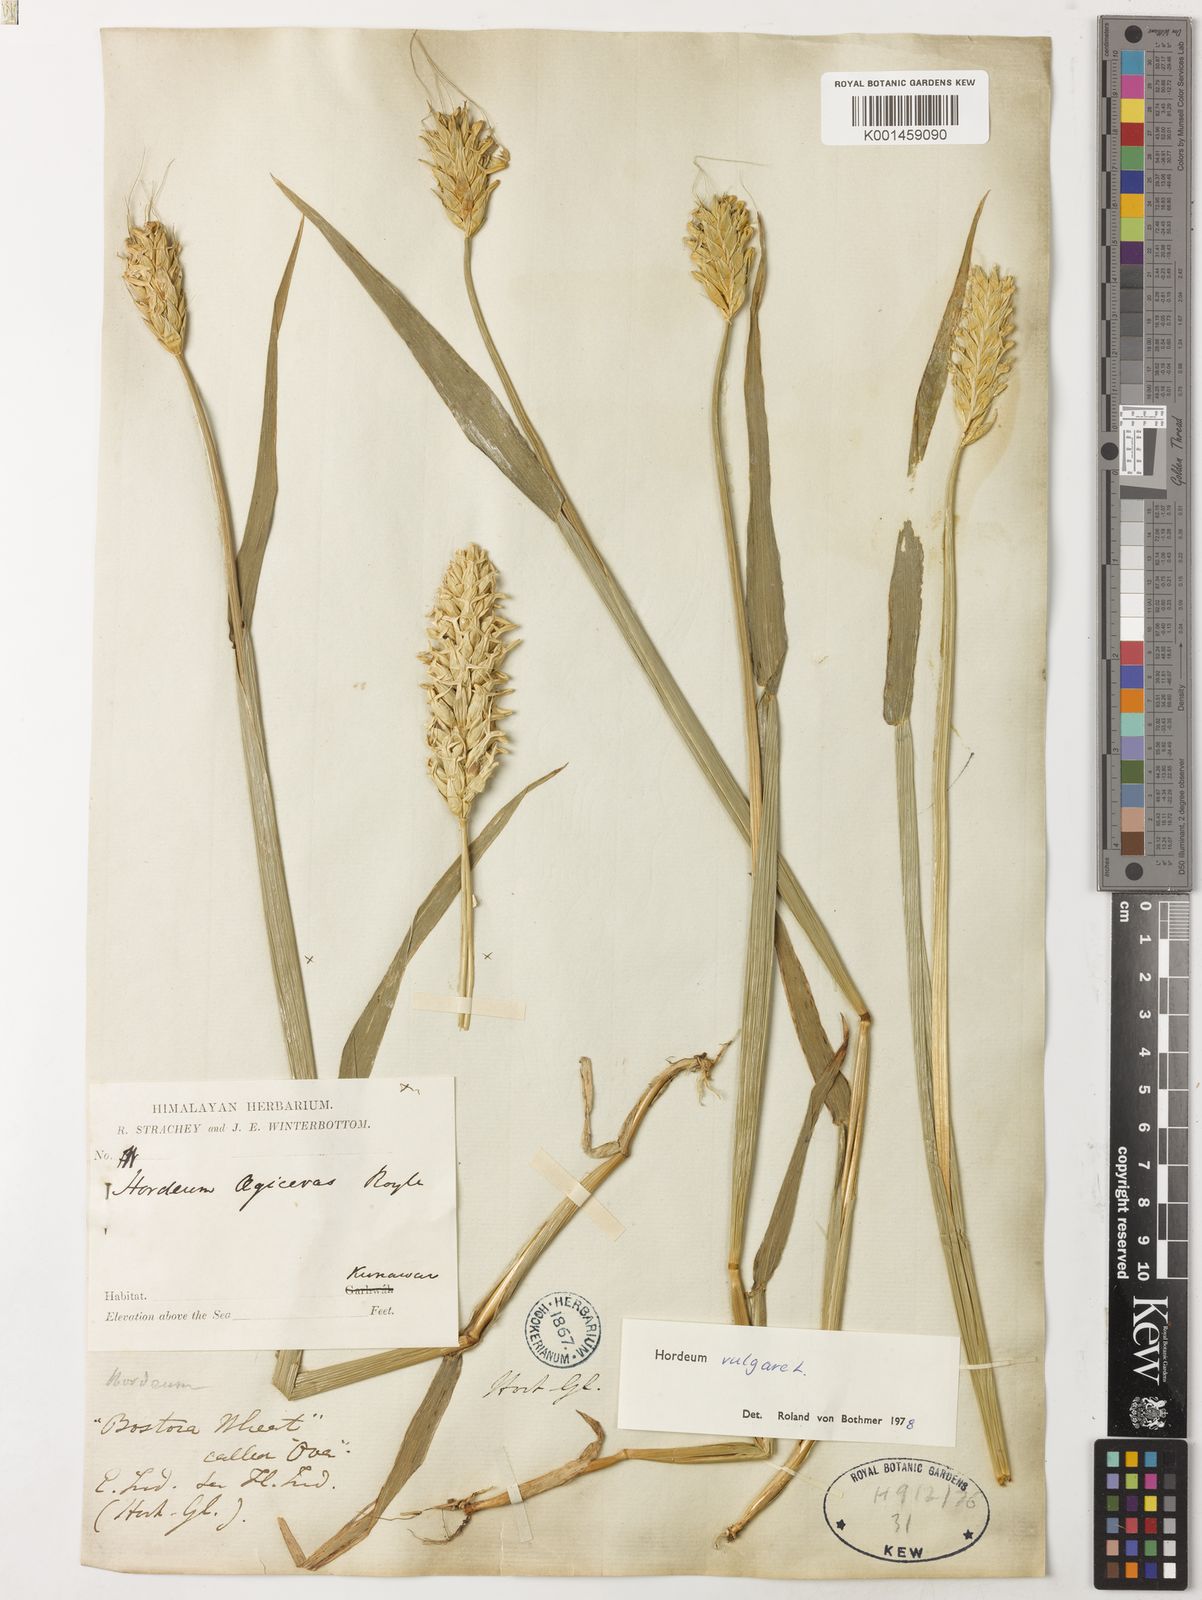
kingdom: Plantae
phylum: Tracheophyta
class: Liliopsida
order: Poales
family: Poaceae
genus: Hordeum
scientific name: Hordeum vulgare
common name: Common barley
